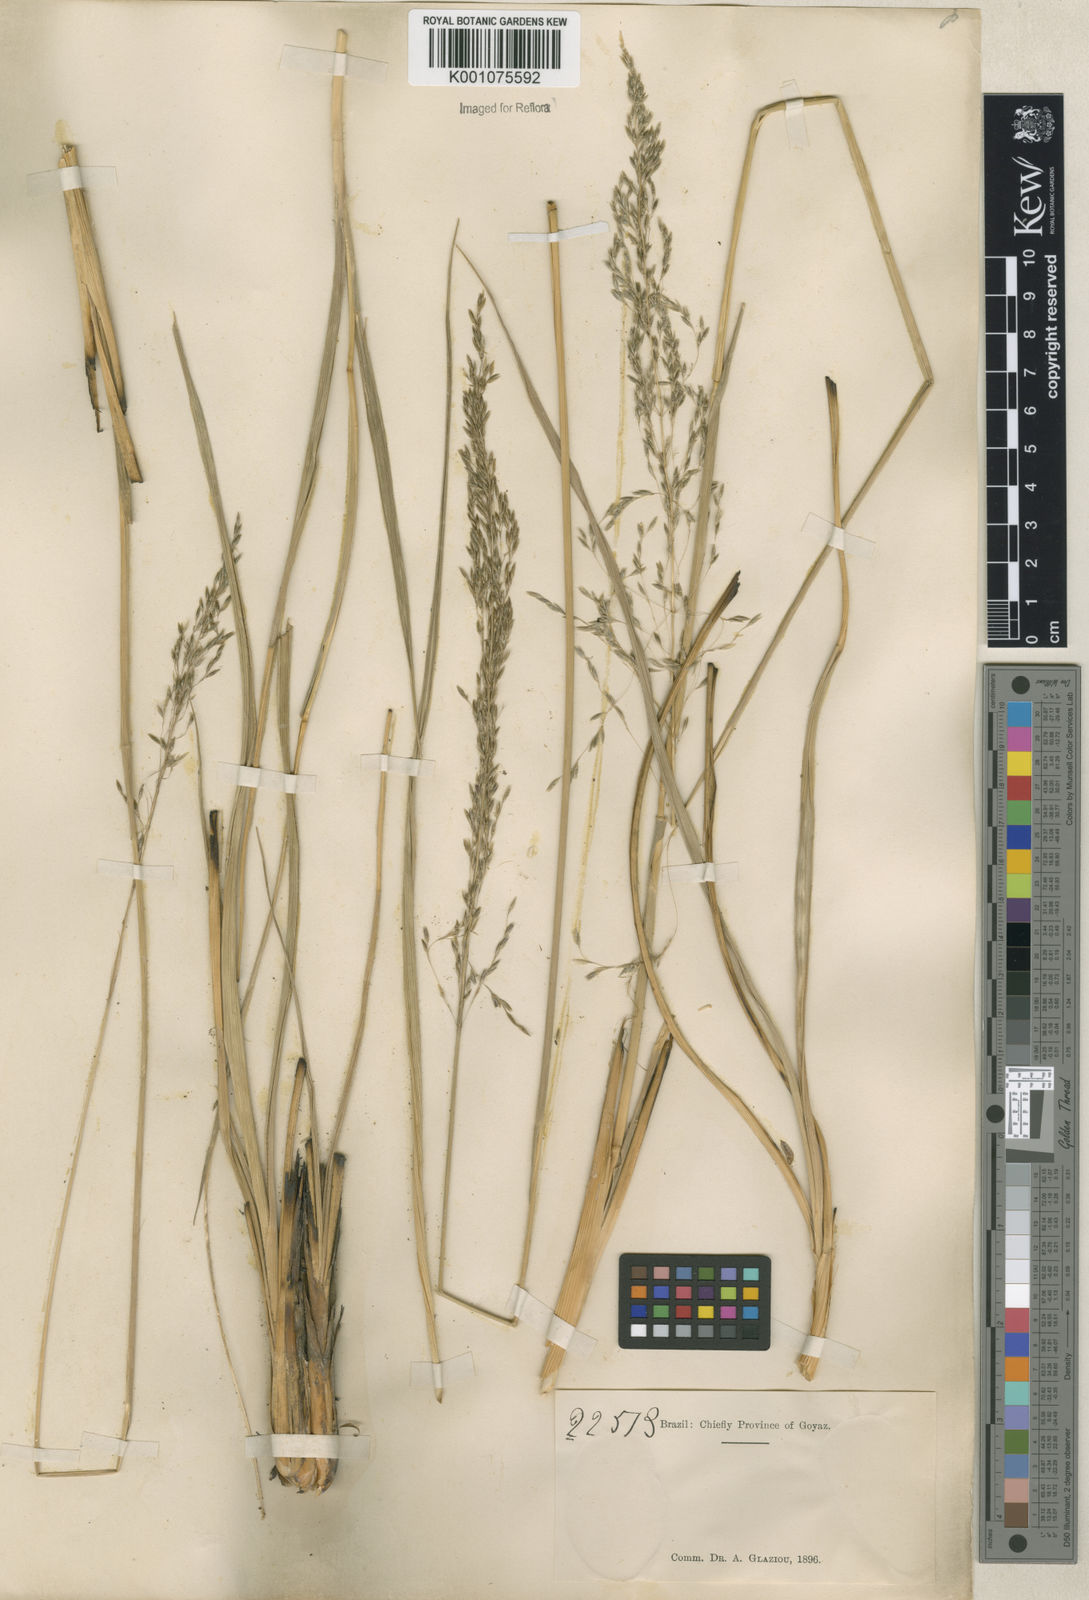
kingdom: Plantae
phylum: Tracheophyta
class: Liliopsida
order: Poales
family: Poaceae
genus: Sporobolus
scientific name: Sporobolus eximius
